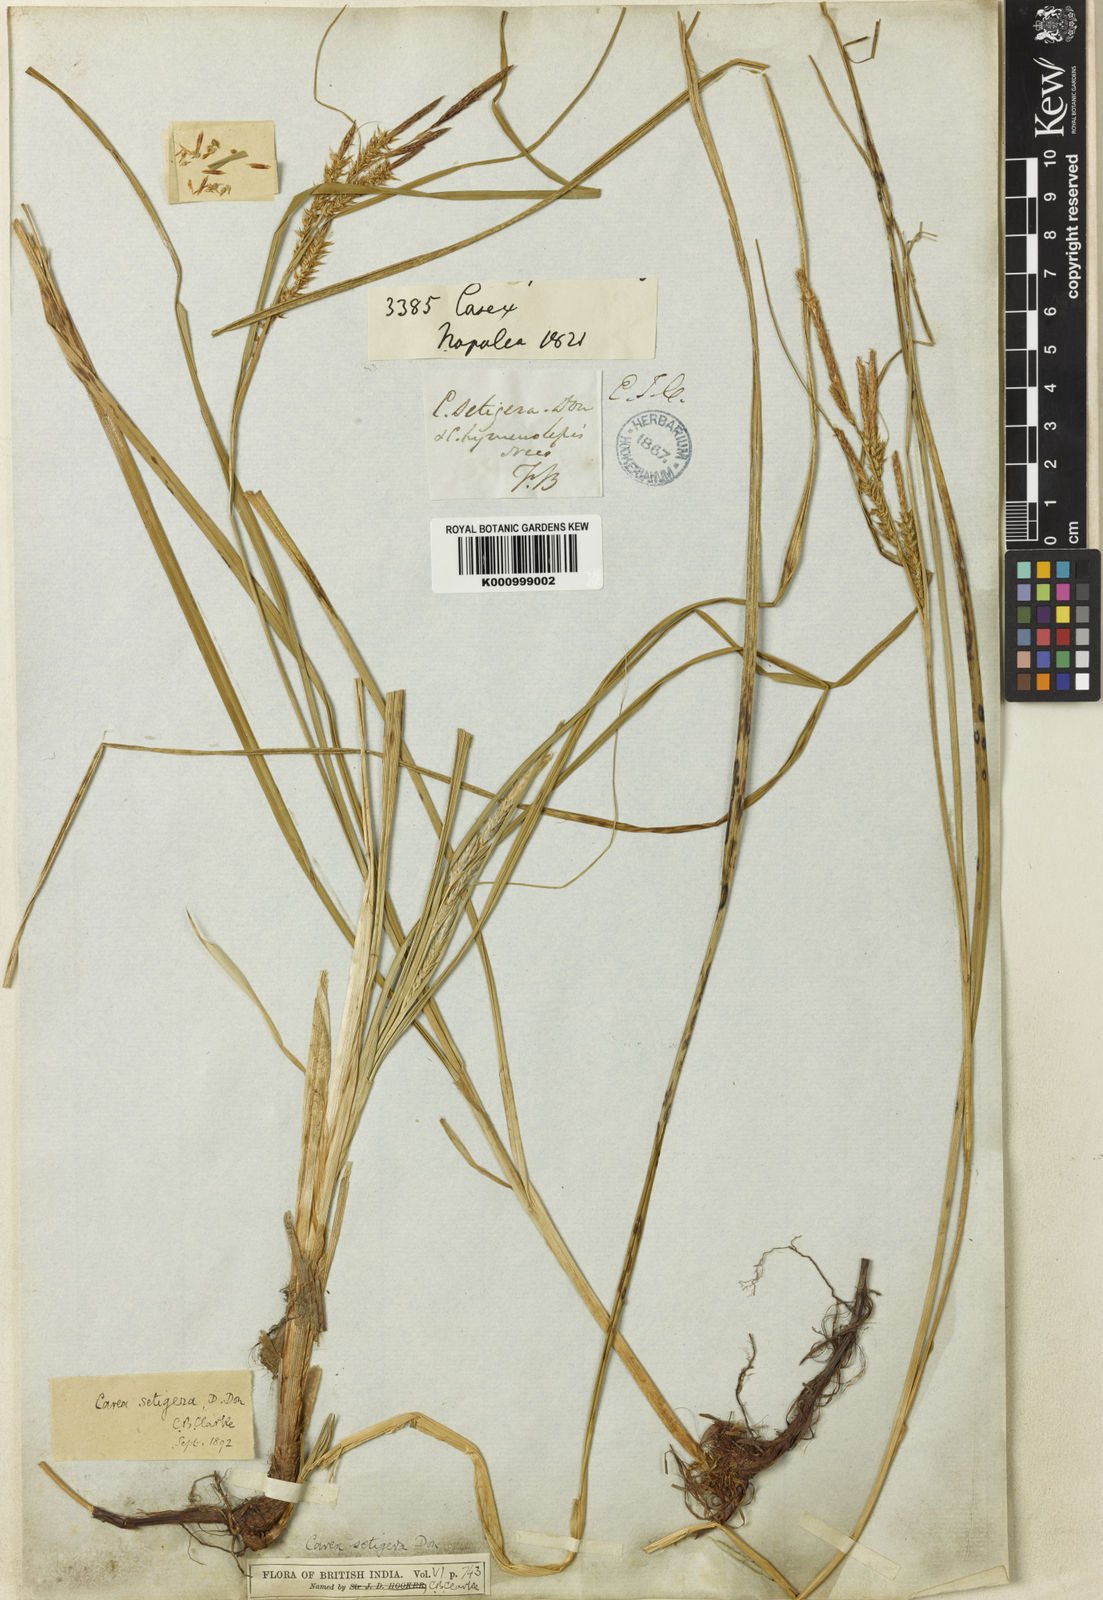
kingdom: Plantae
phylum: Tracheophyta
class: Liliopsida
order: Poales
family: Cyperaceae
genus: Carex
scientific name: Carex setigera
